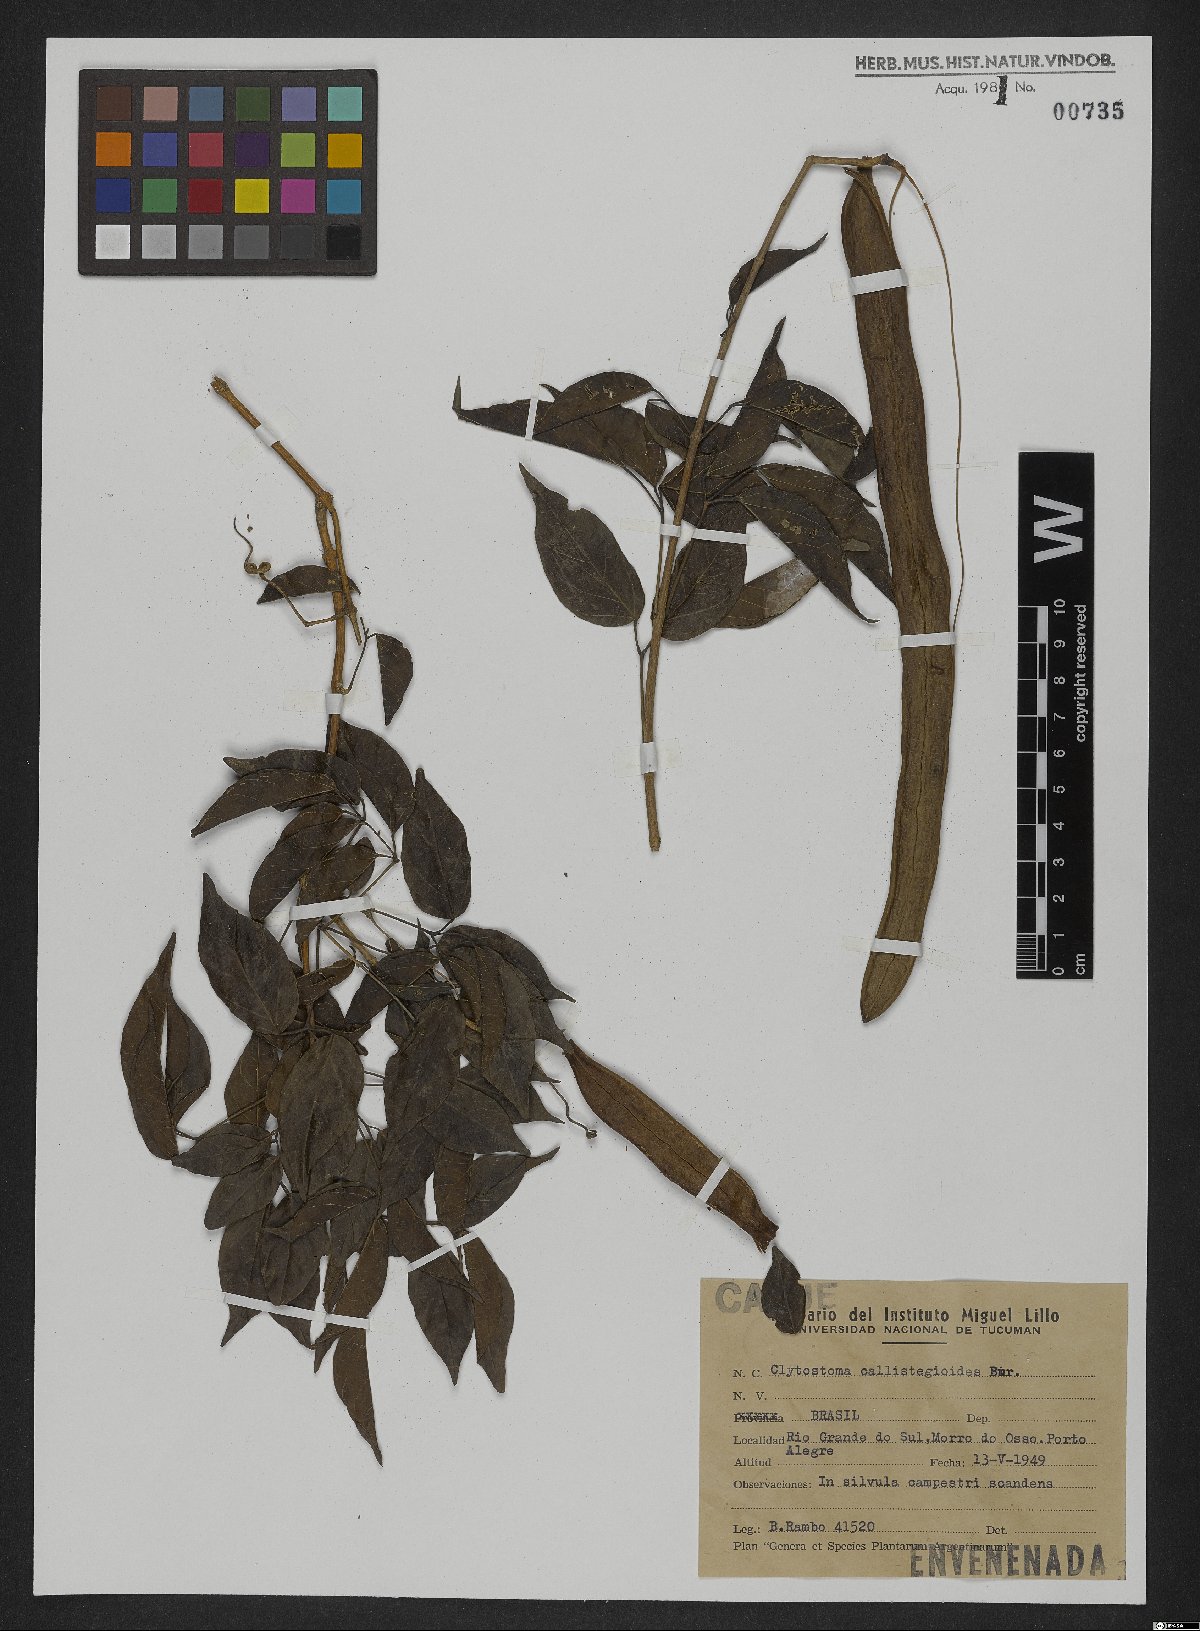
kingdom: Plantae
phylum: Tracheophyta
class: Magnoliopsida
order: Lamiales
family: Bignoniaceae
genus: Bignonia
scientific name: Bignonia callistegioides
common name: Argentine trumpetvine
